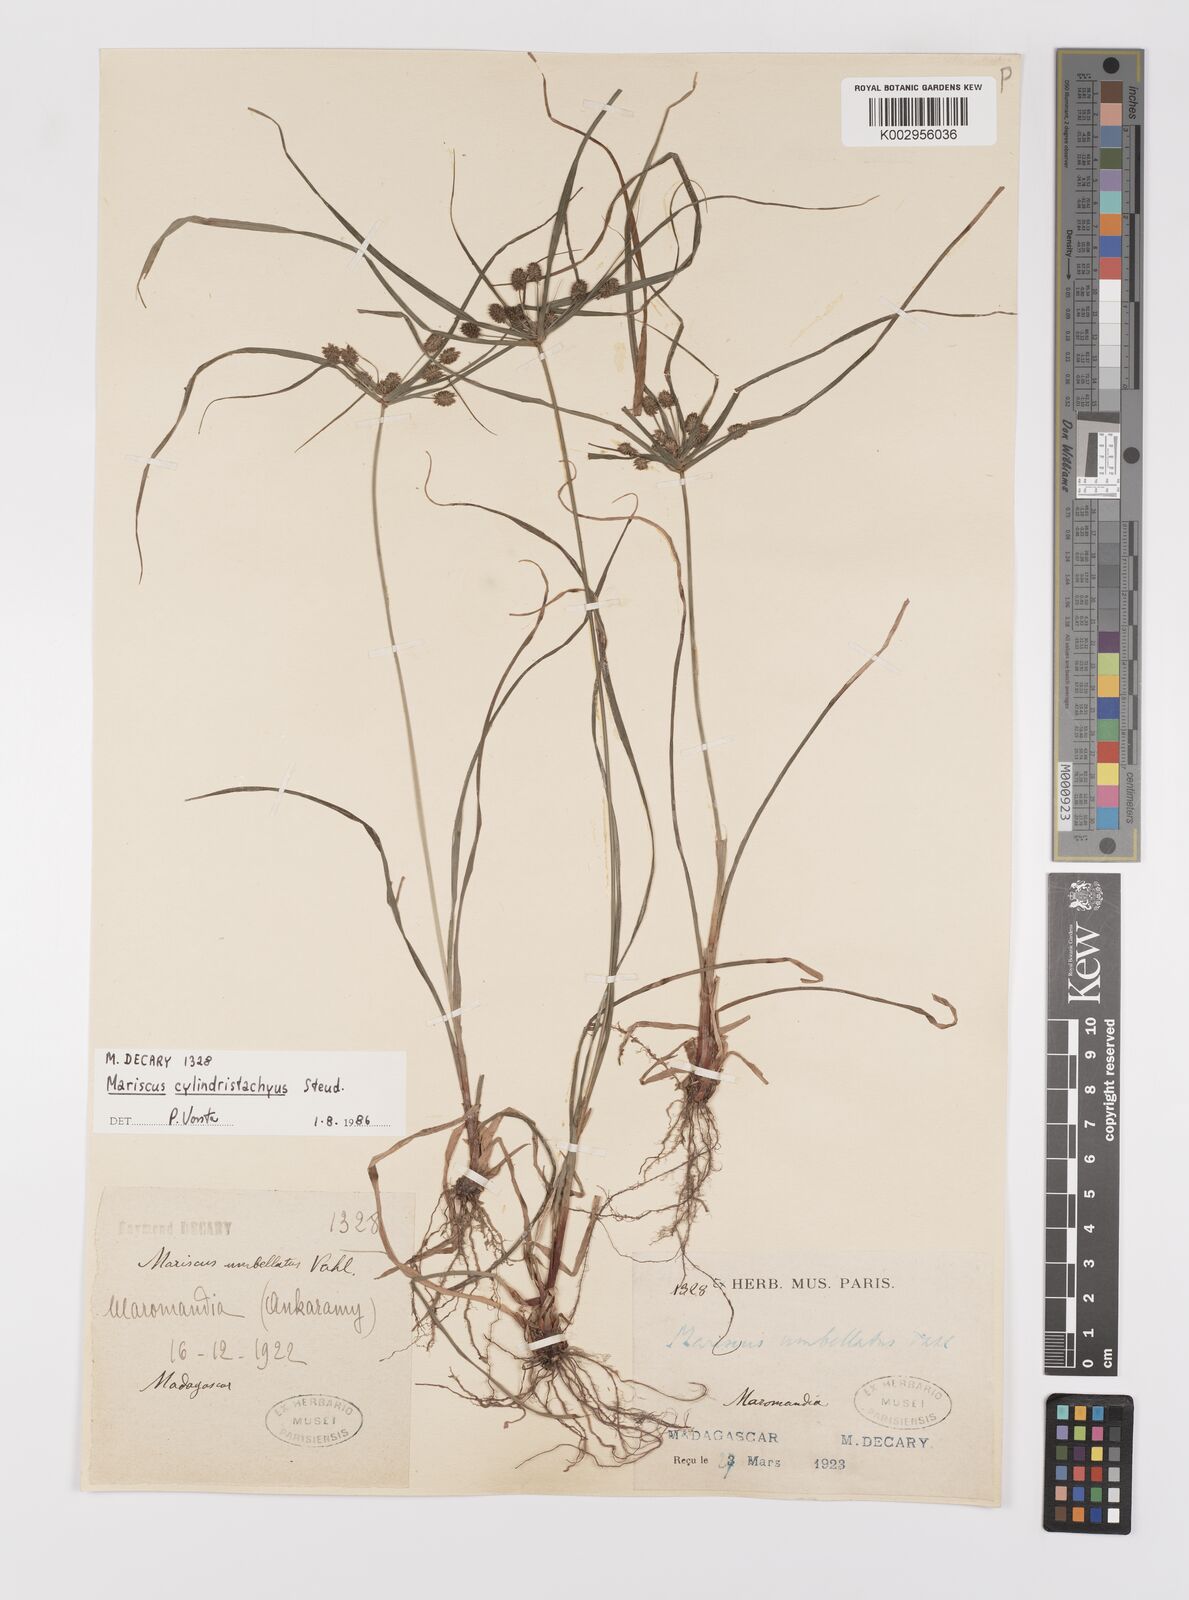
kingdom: Plantae
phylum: Tracheophyta
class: Liliopsida
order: Poales
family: Cyperaceae
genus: Cyperus
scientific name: Cyperus cyperoides
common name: Pacific island flat sedge
